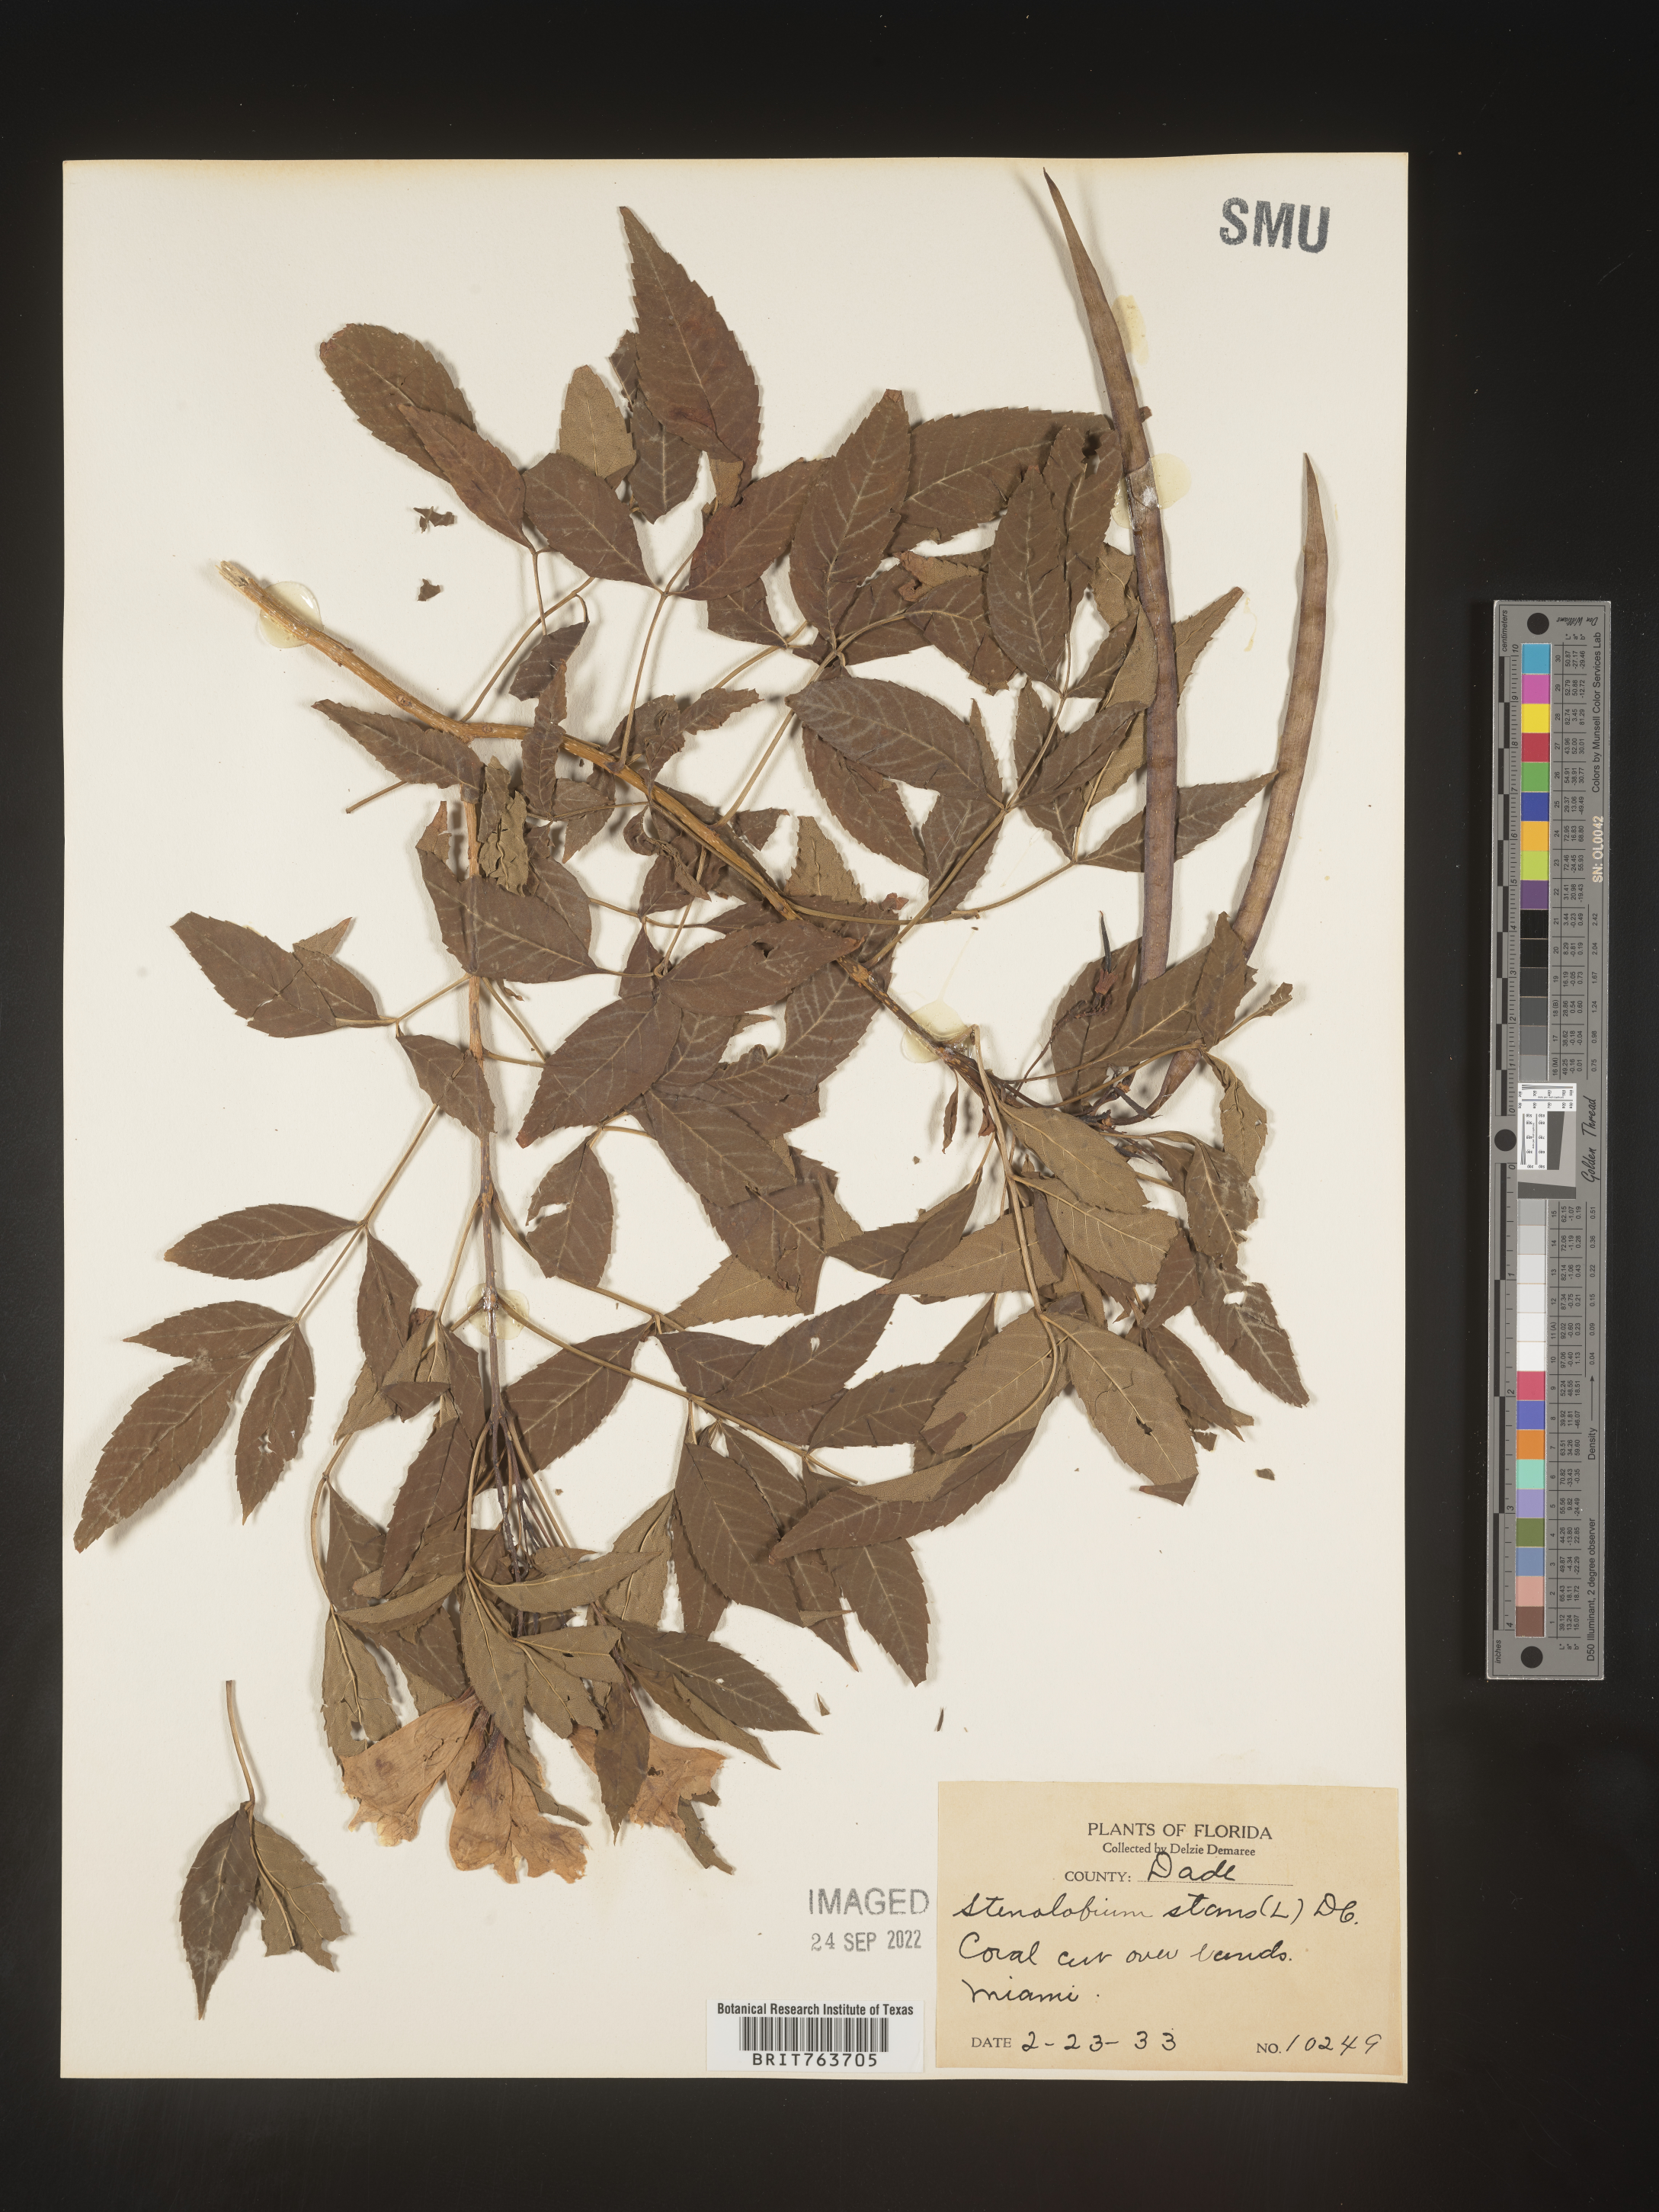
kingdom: Plantae
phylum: Tracheophyta
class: Magnoliopsida
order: Lamiales
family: Bignoniaceae
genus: Tecoma
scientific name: Tecoma
